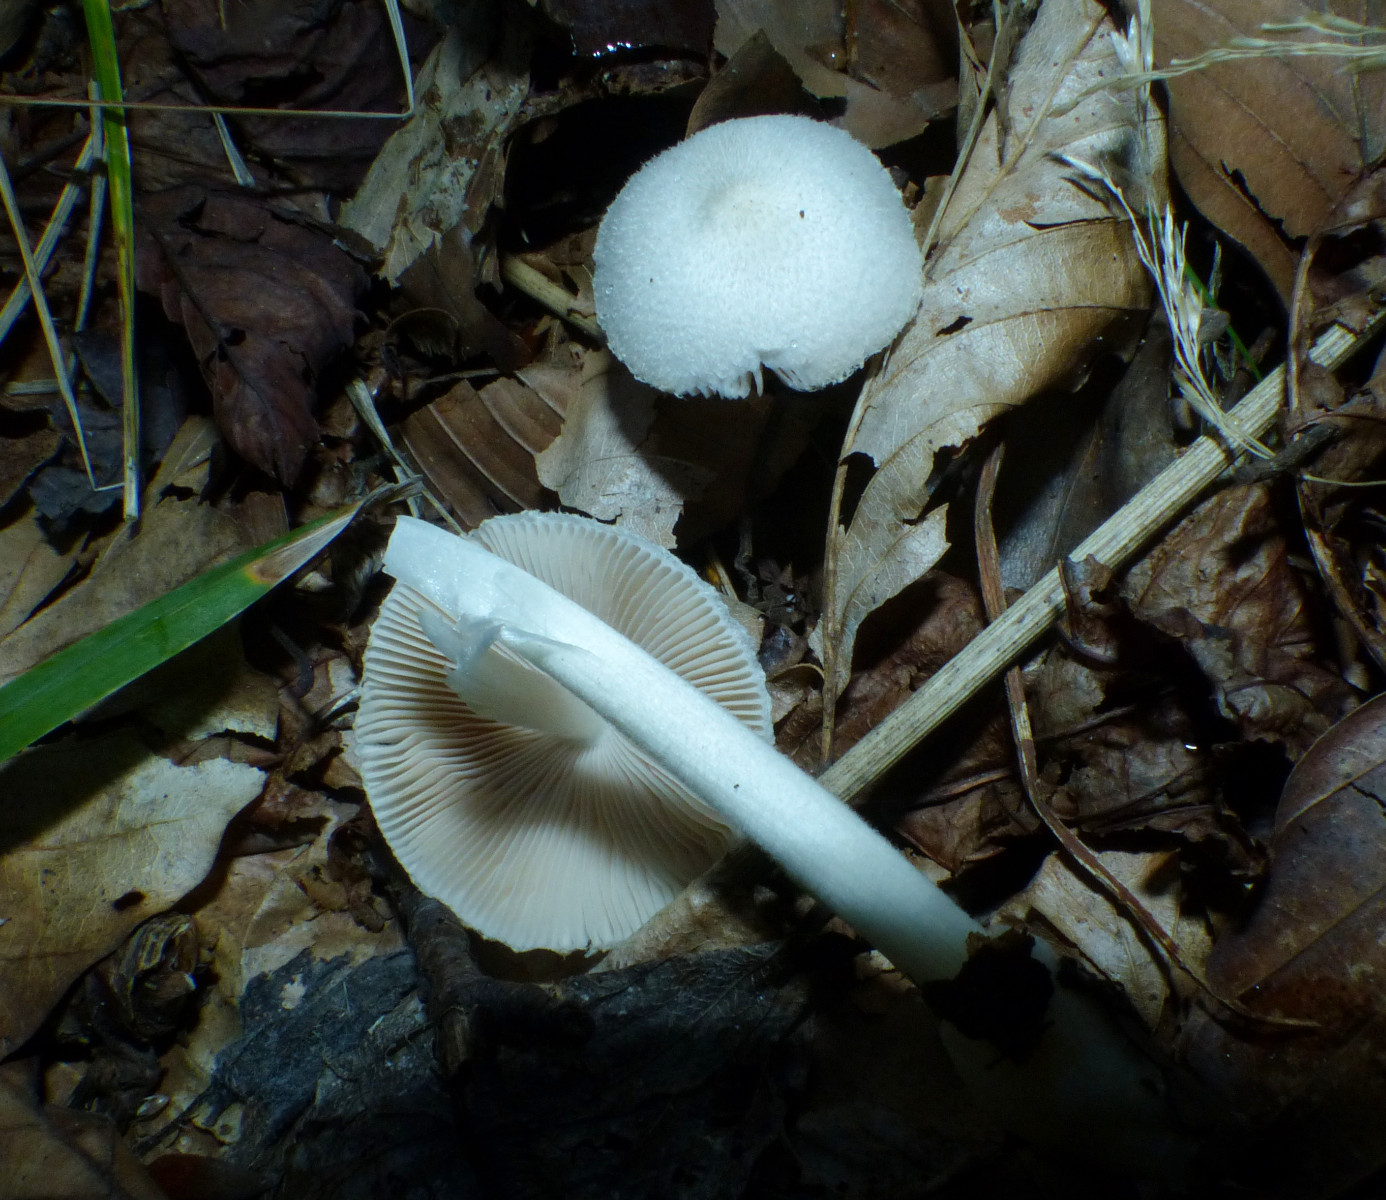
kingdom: Fungi
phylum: Basidiomycota
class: Agaricomycetes
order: Agaricales
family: Pluteaceae
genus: Volvariella
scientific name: Volvariella hypopithys
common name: dunstokket posesvamp
